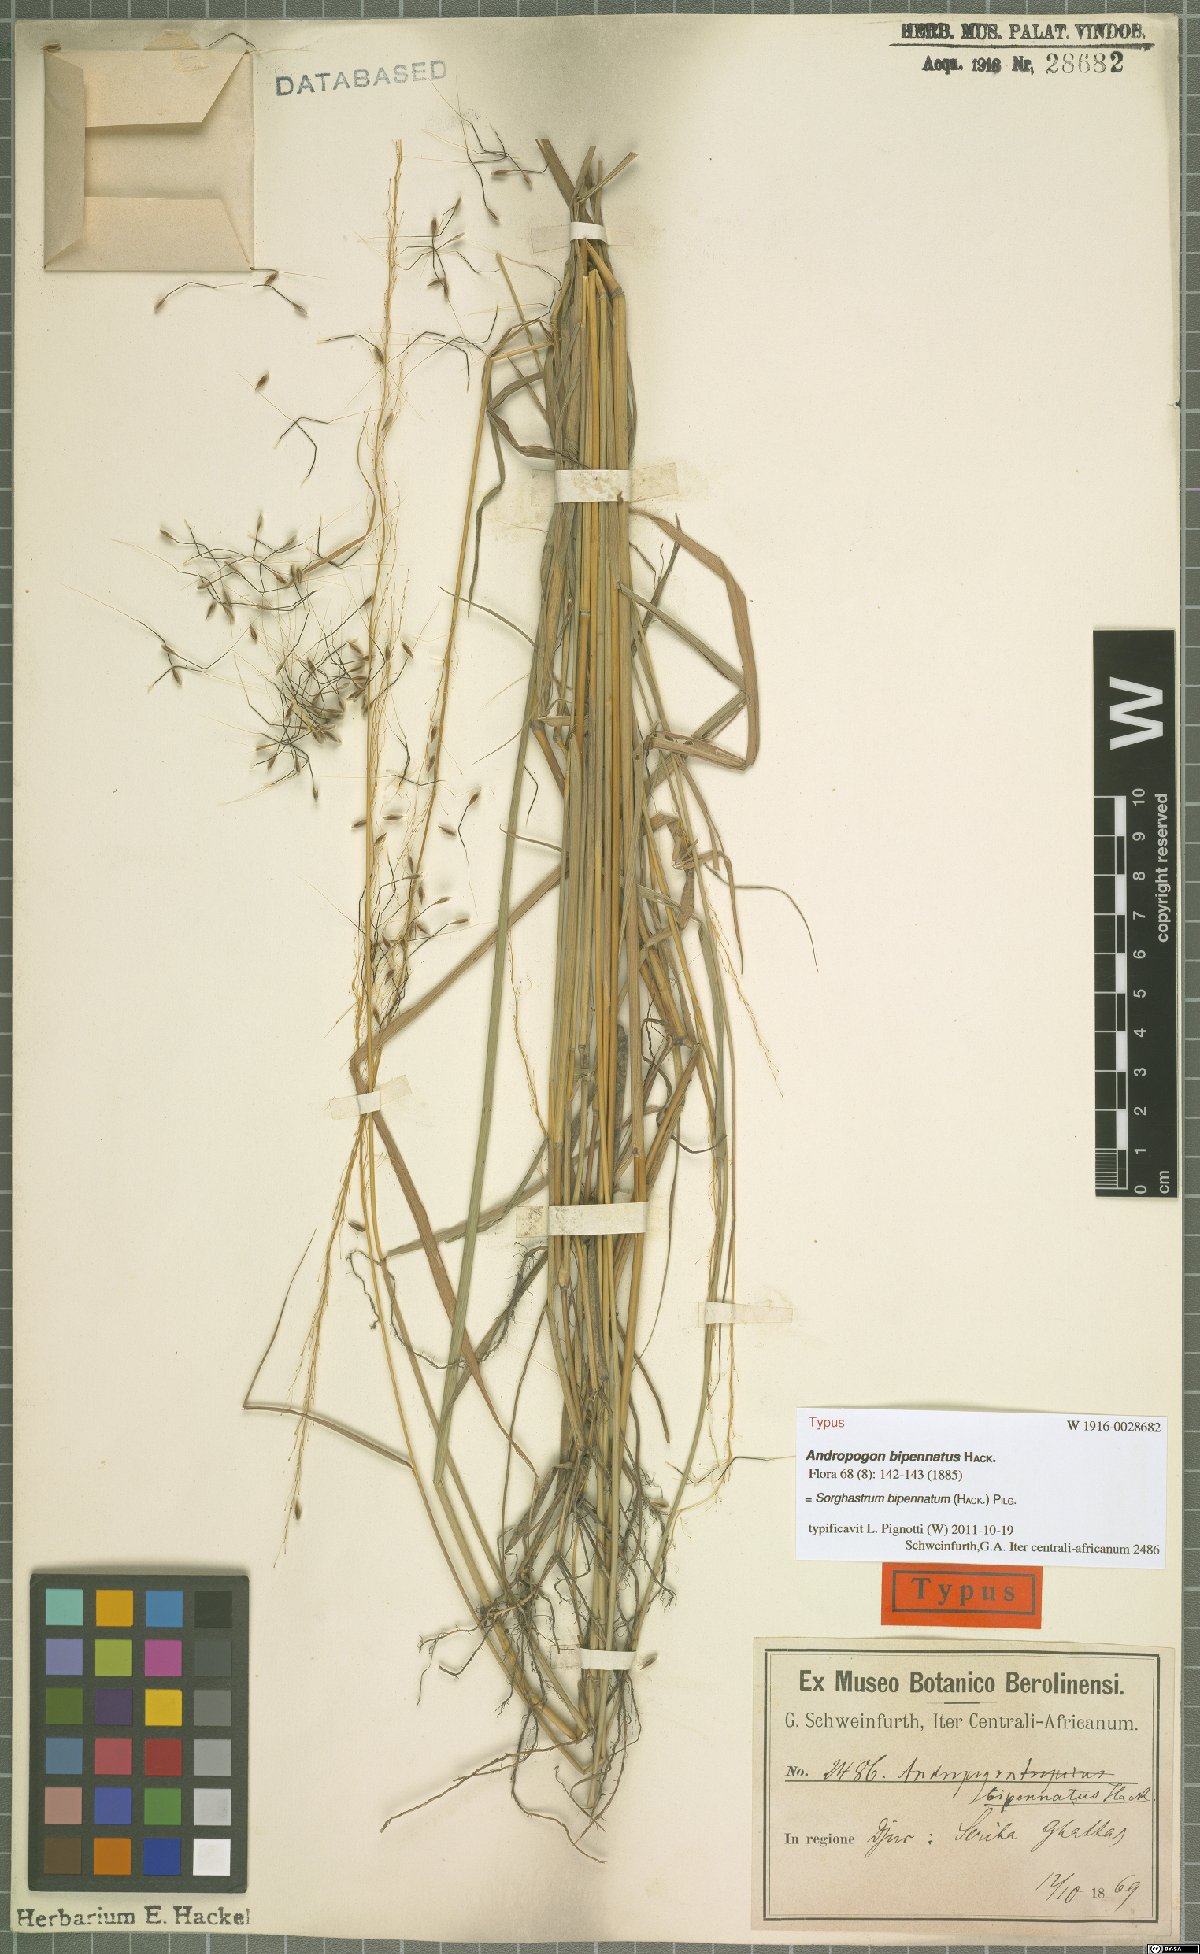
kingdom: Plantae
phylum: Tracheophyta
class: Liliopsida
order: Poales
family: Poaceae
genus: Sorghastrum
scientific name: Sorghastrum incompletum
